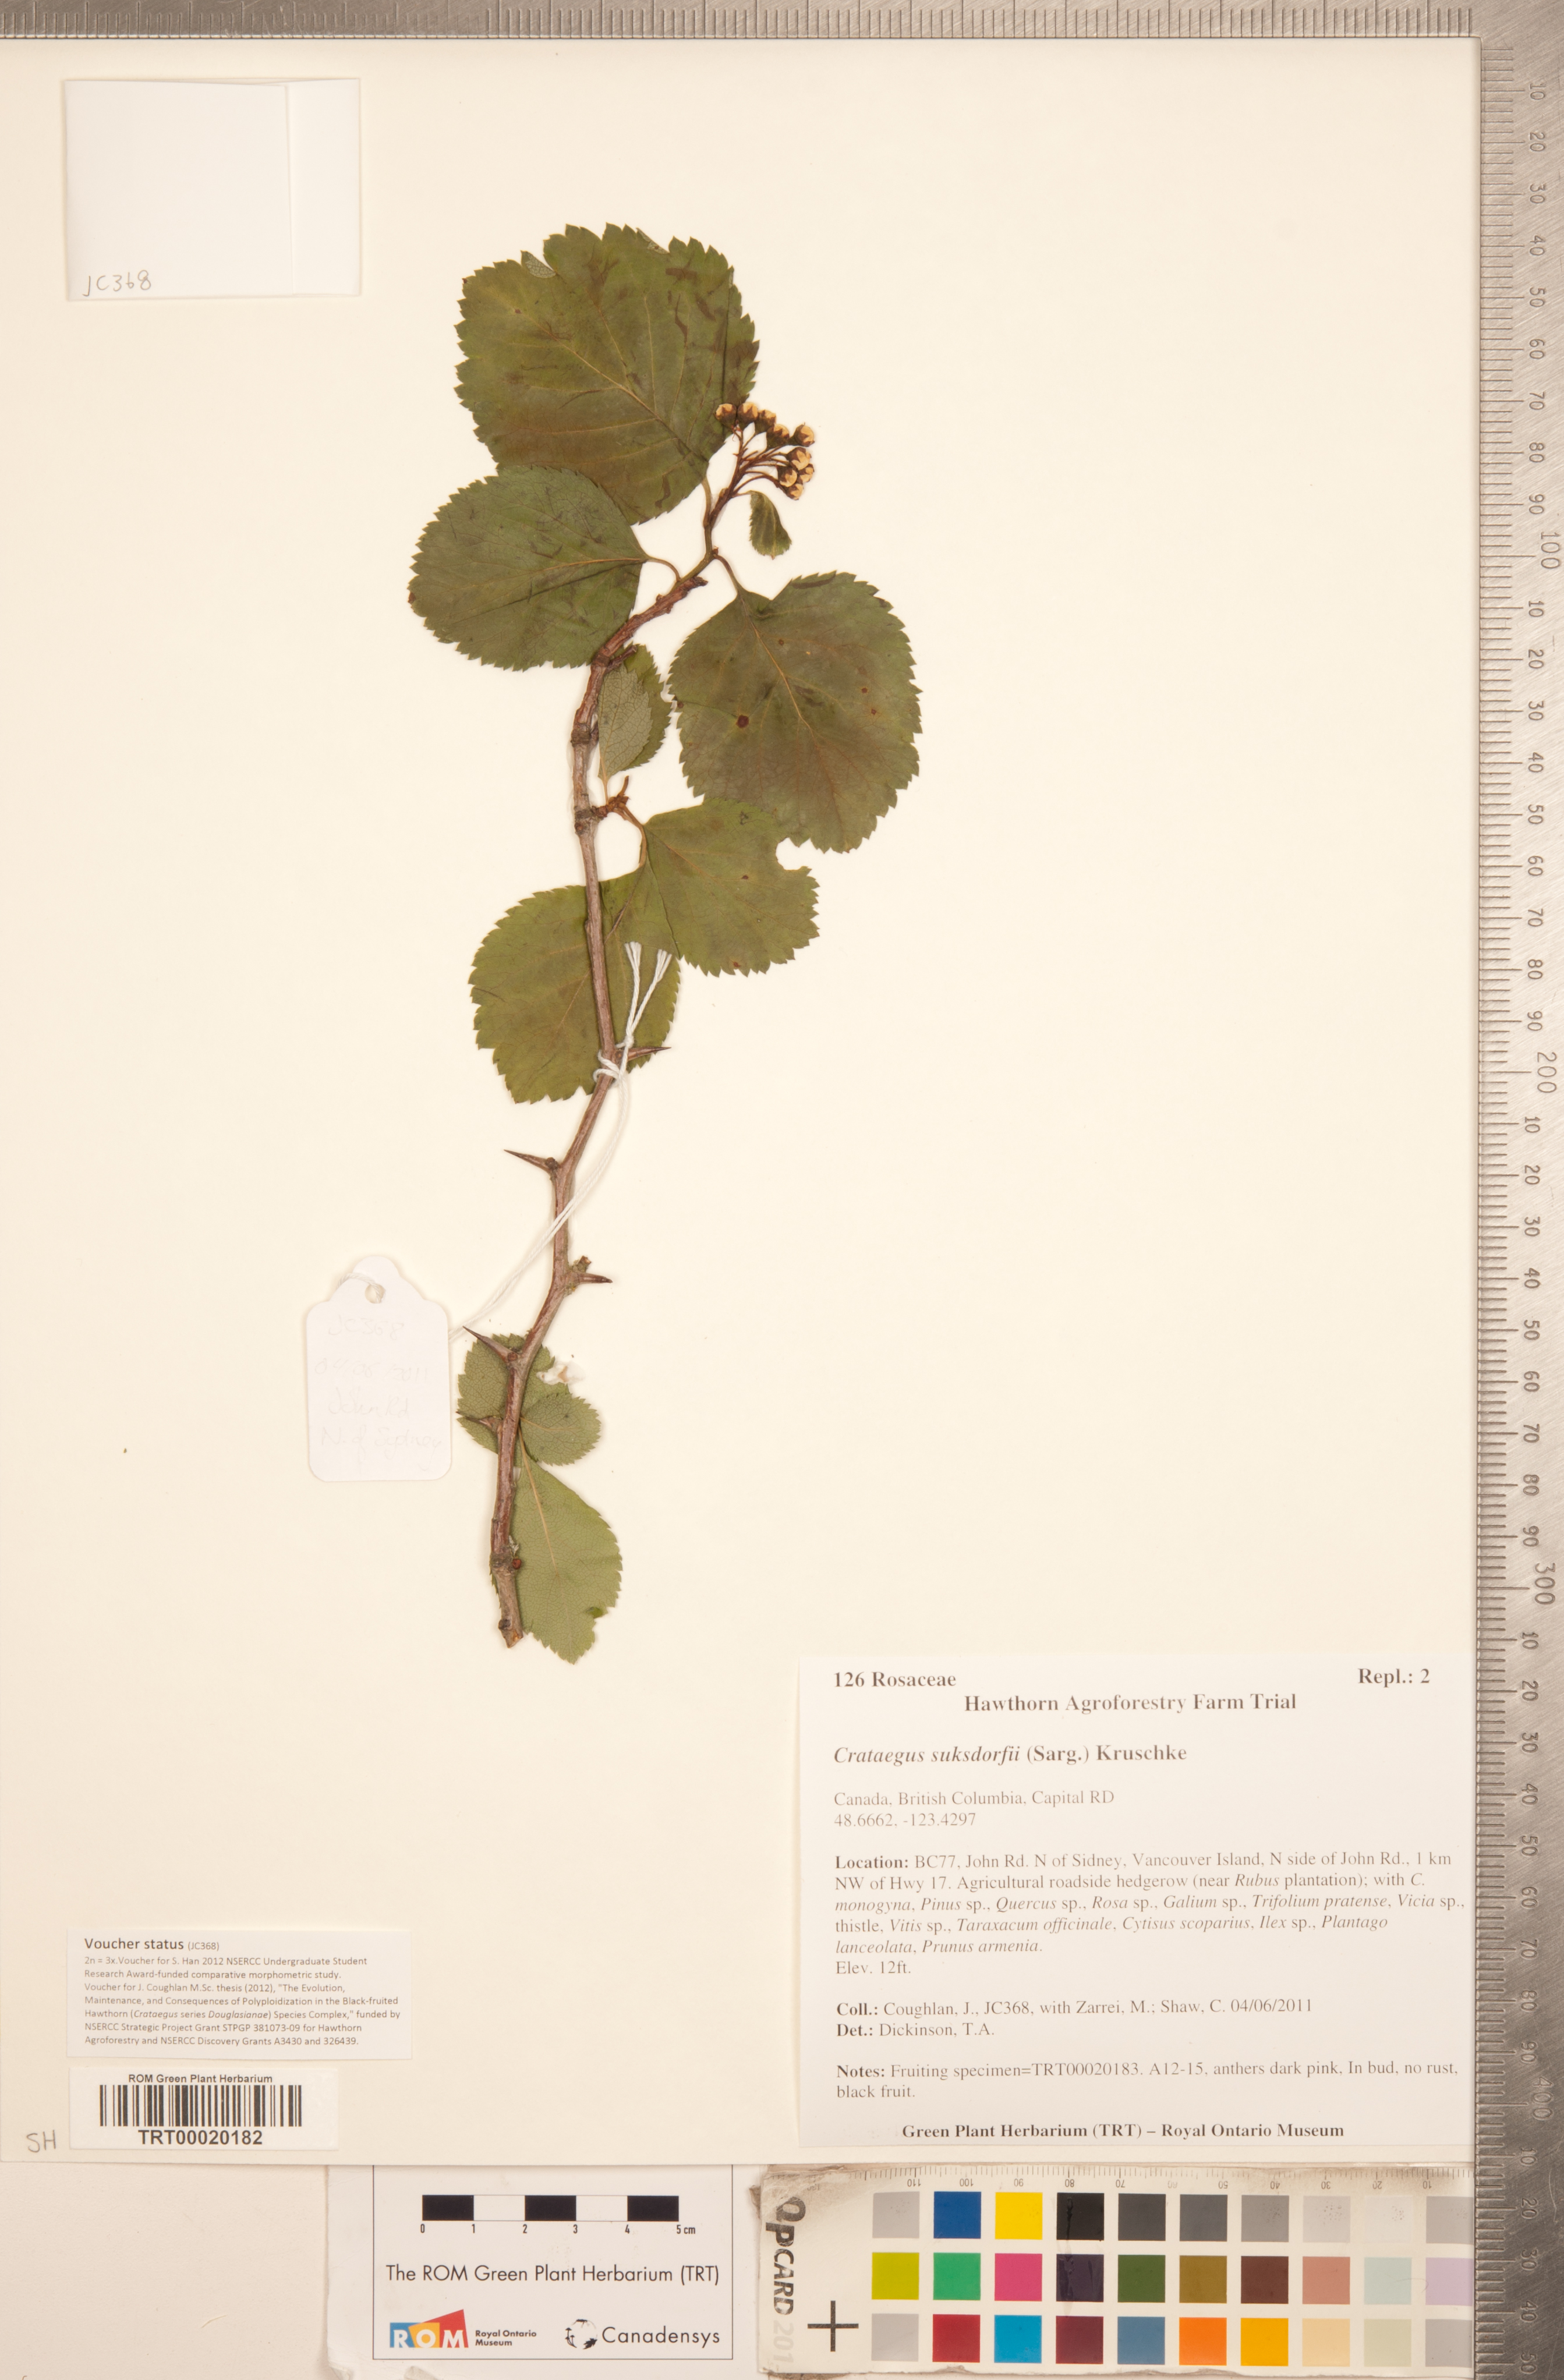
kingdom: Plantae
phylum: Tracheophyta
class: Magnoliopsida
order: Rosales
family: Rosaceae
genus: Crataegus
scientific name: Crataegus gaylussacia
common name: Huckleberry hawthorn
